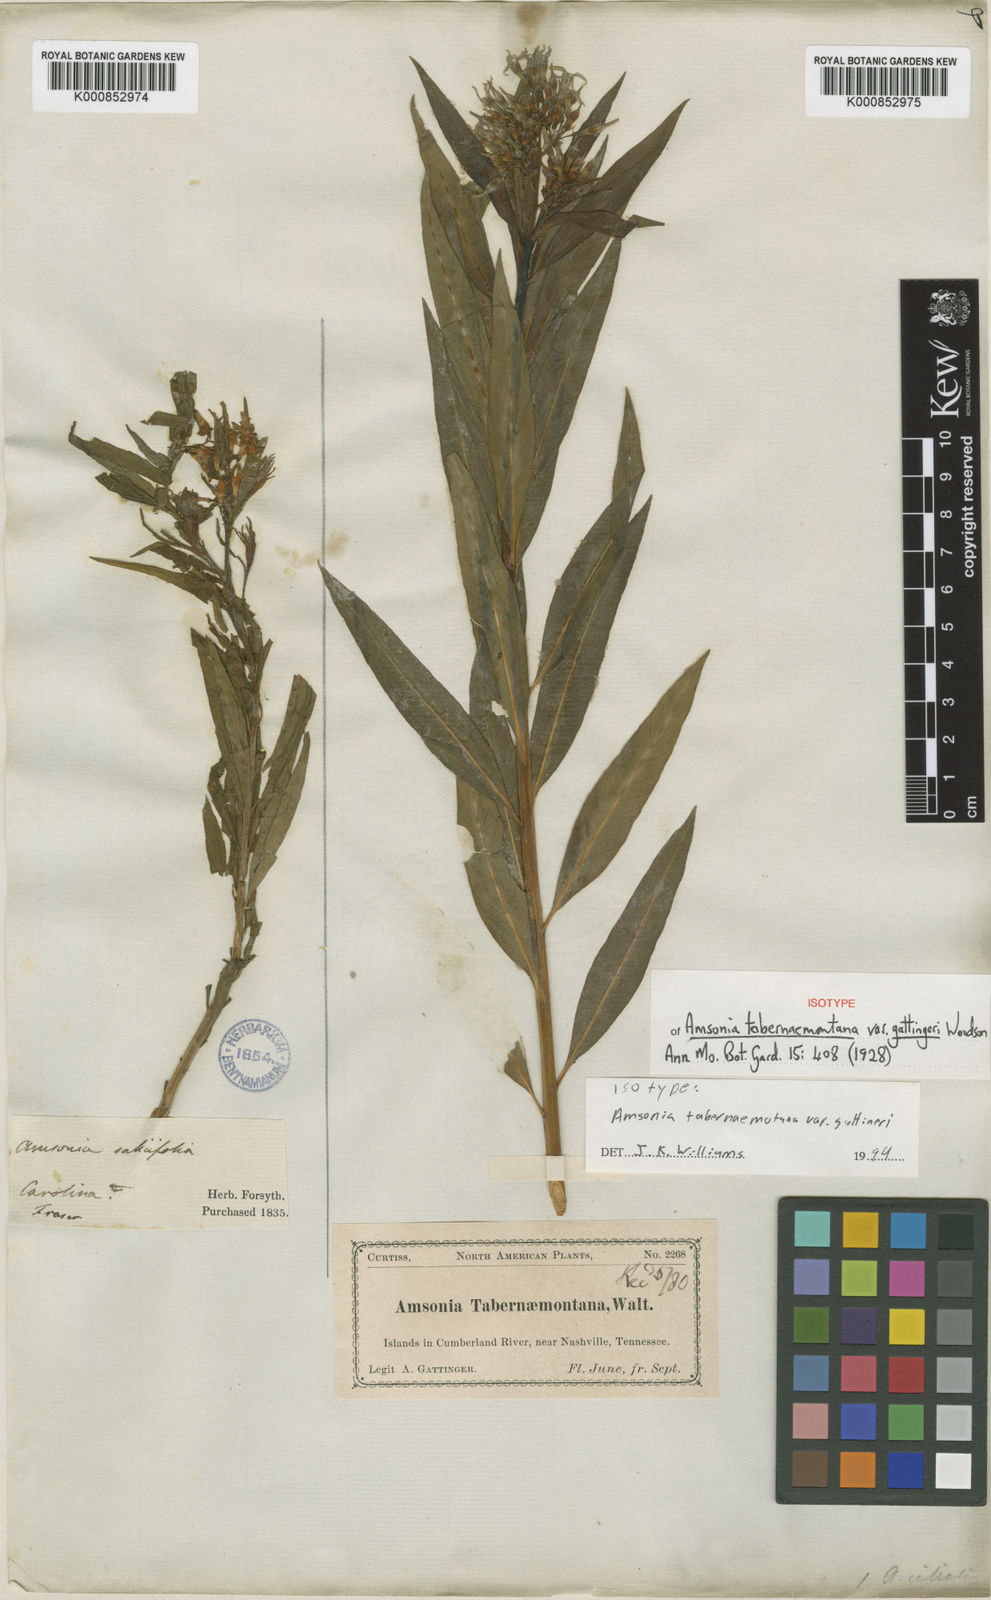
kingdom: Plantae
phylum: Tracheophyta
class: Magnoliopsida
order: Gentianales
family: Apocynaceae
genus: Amsonia
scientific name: Amsonia tabernaemontana
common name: Texas-star
